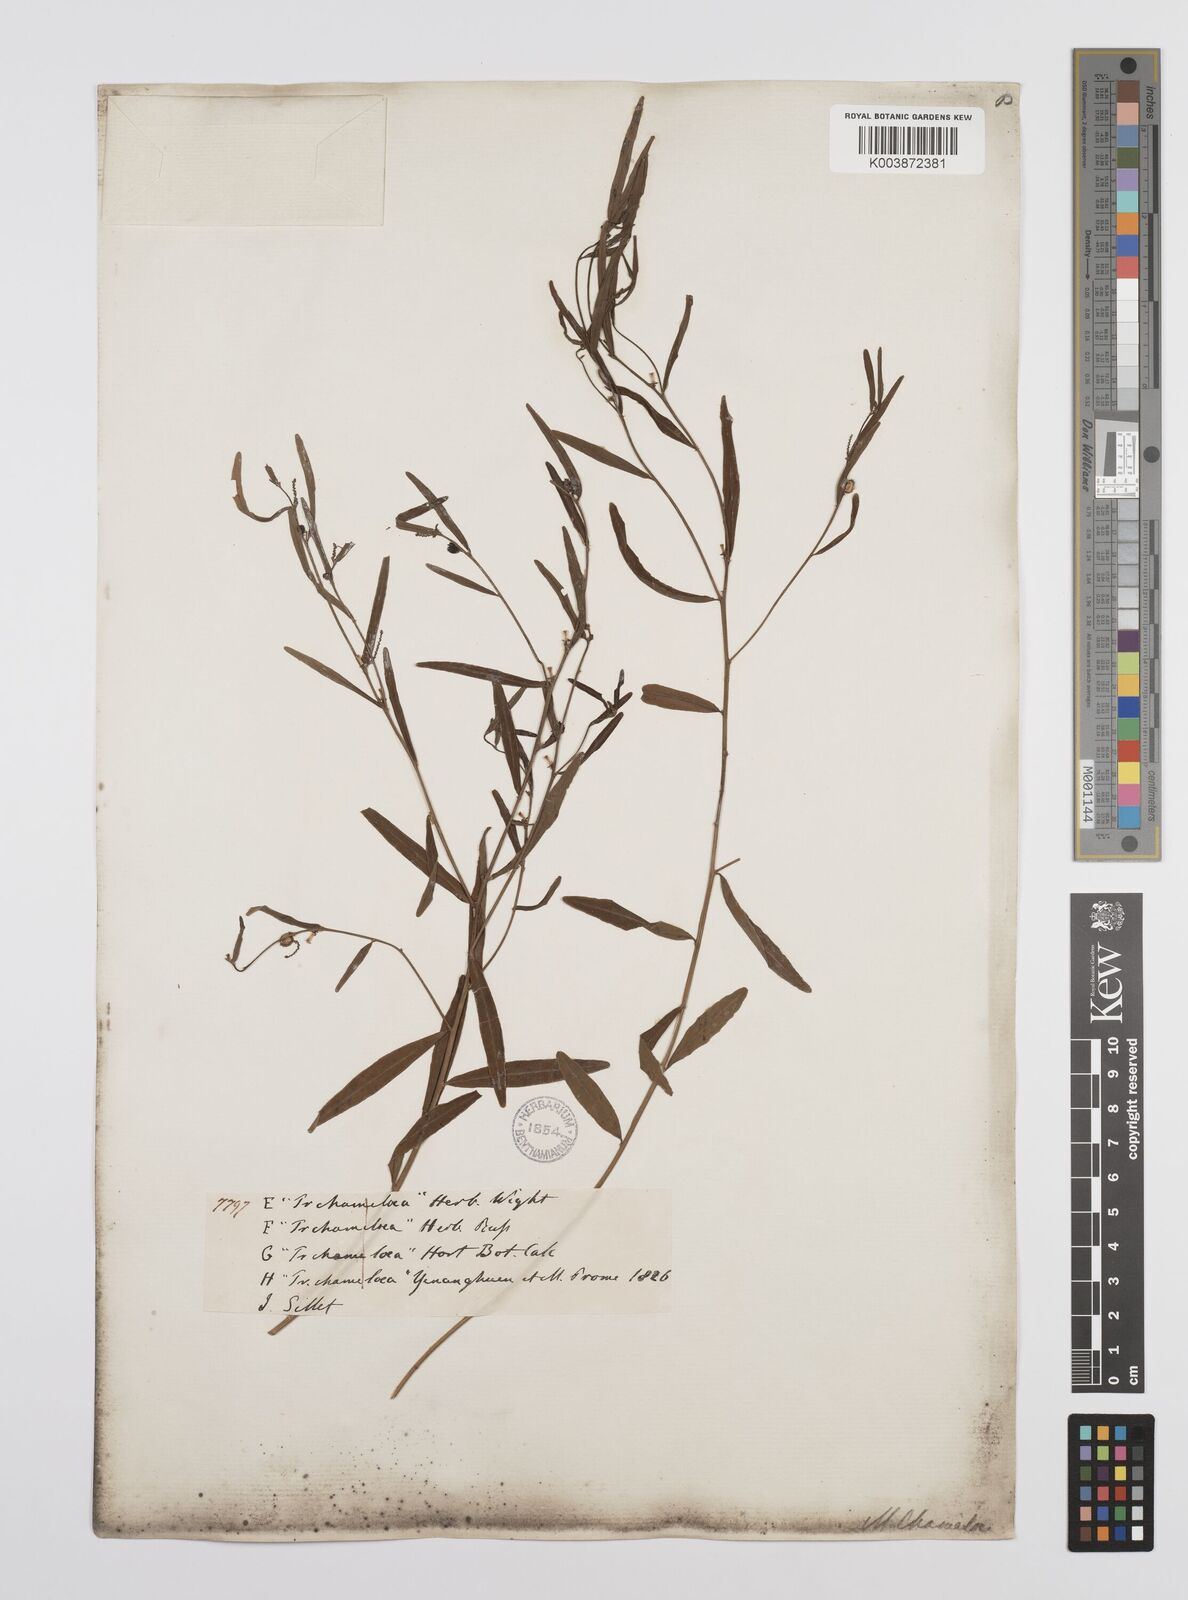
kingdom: Plantae
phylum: Tracheophyta
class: Magnoliopsida
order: Malpighiales
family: Euphorbiaceae
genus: Microstachys
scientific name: Microstachys chamaelea
